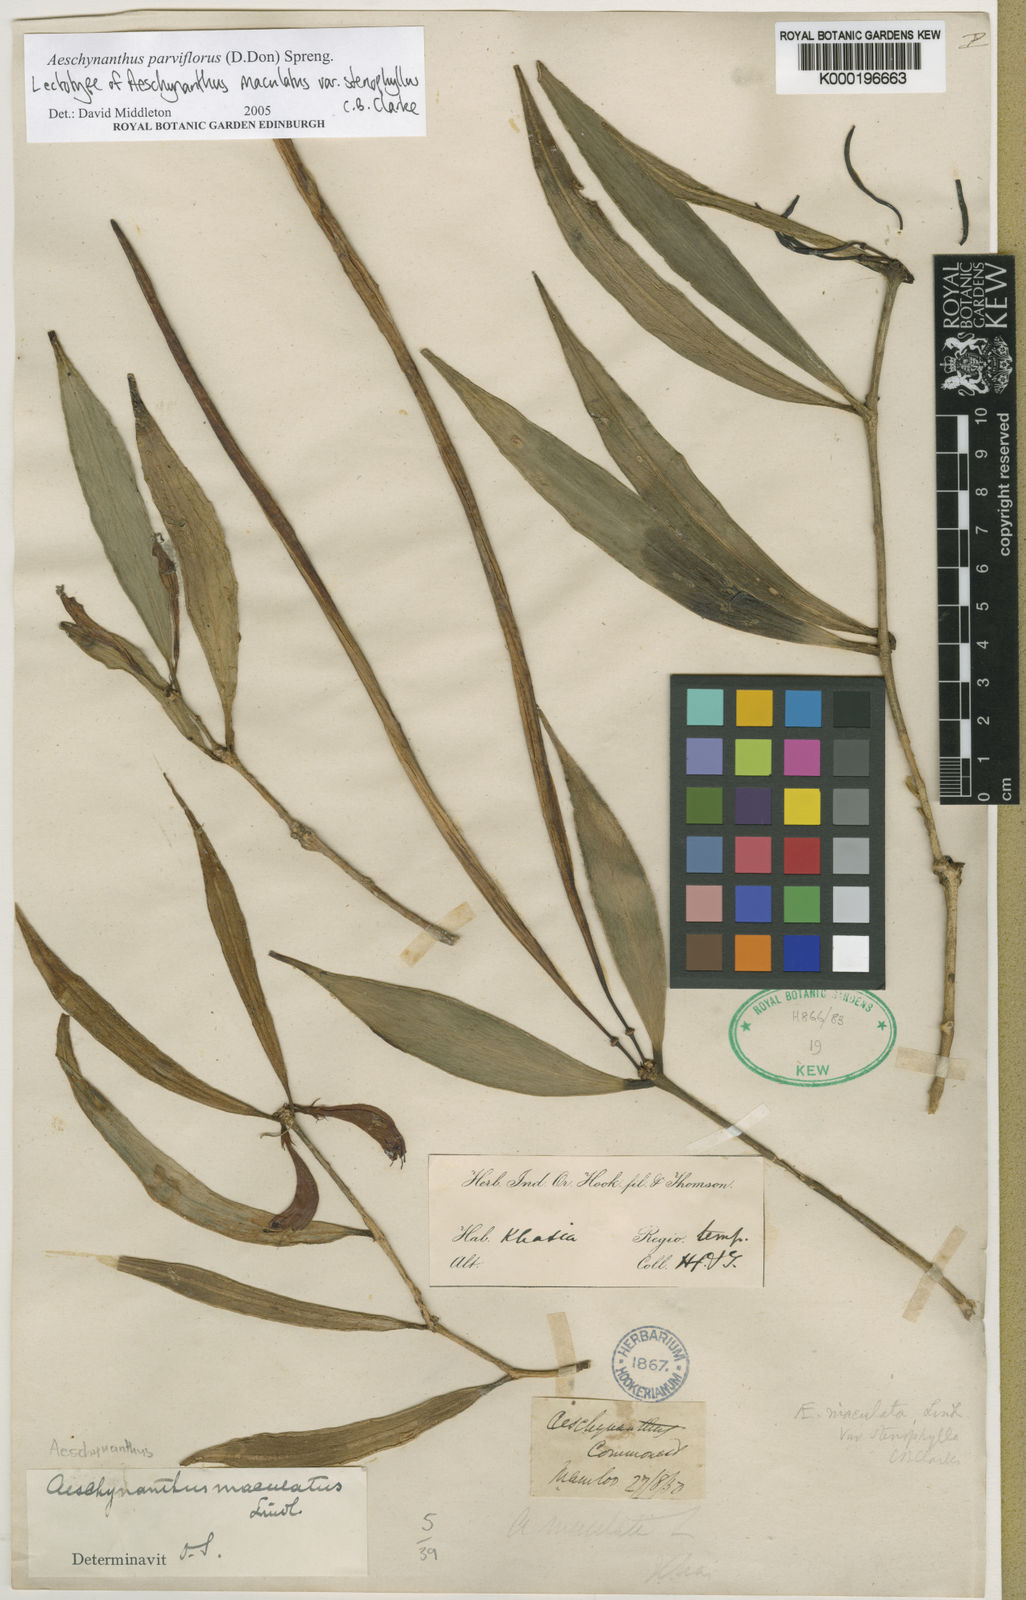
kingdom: Plantae
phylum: Tracheophyta
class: Magnoliopsida
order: Lamiales
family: Gesneriaceae
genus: Aeschynanthus
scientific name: Aeschynanthus parviflorus
